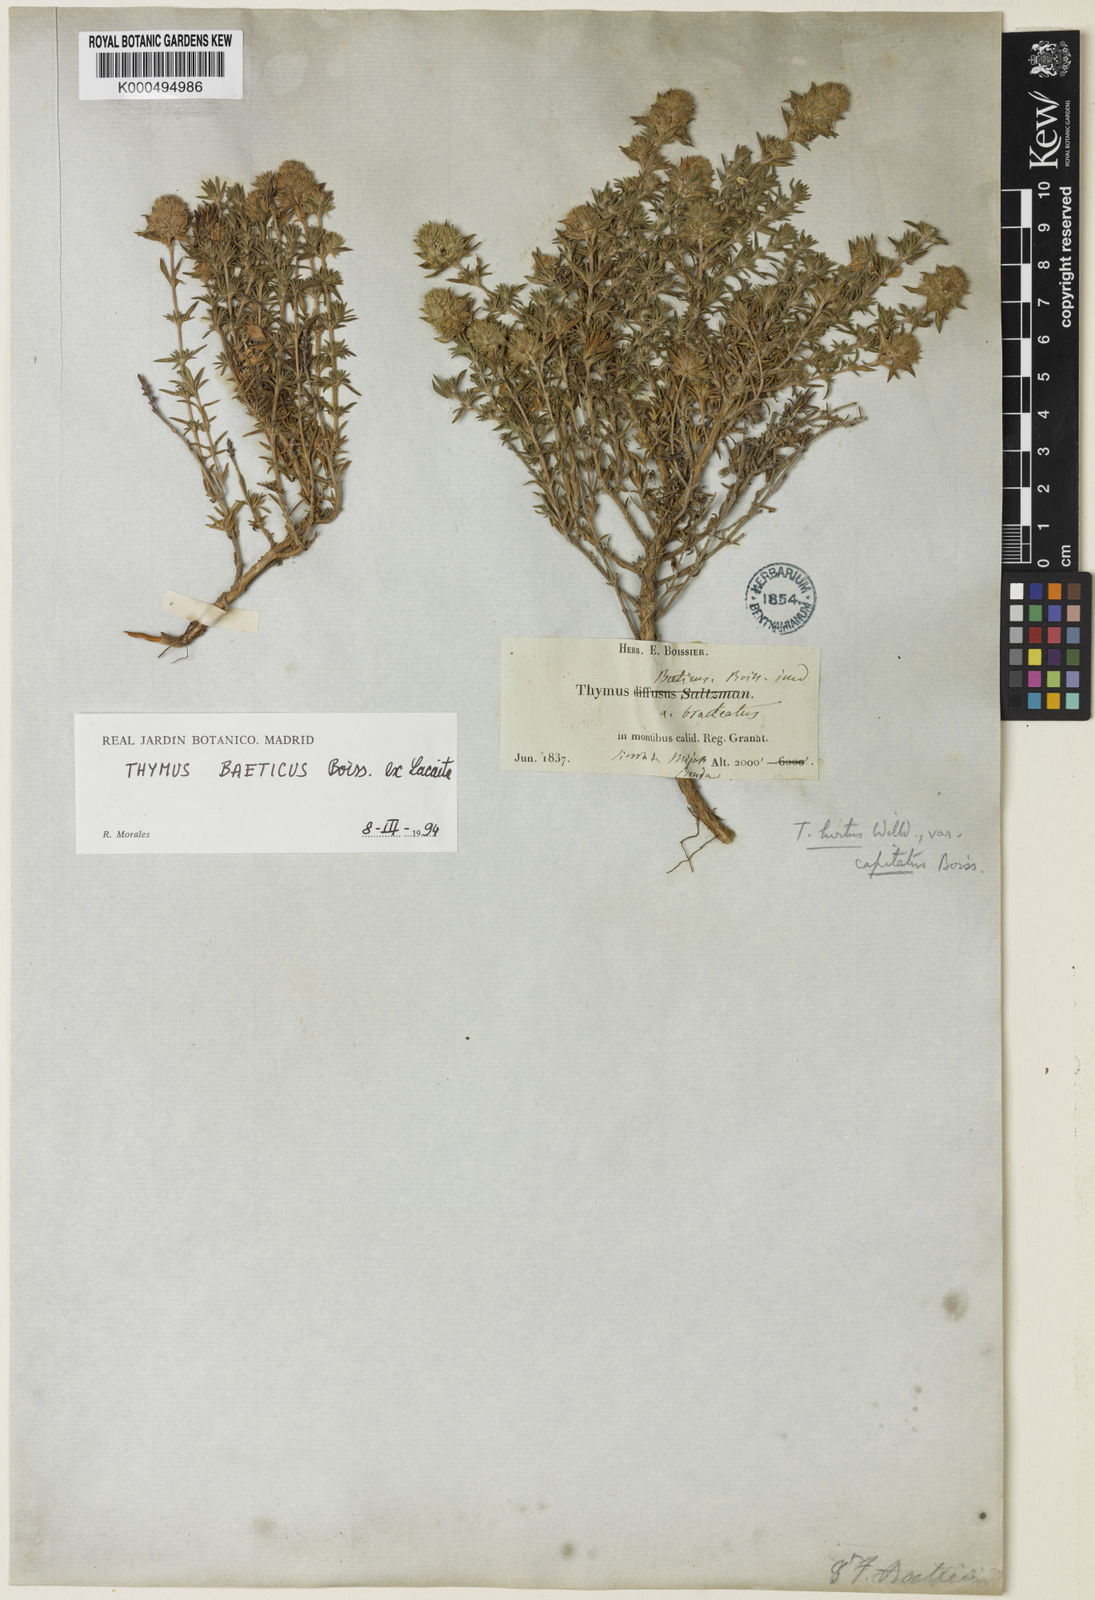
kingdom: Plantae
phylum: Tracheophyta
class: Magnoliopsida
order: Lamiales
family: Lamiaceae
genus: Thymus
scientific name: Thymus baeticus
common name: Spanish lemon thyme
